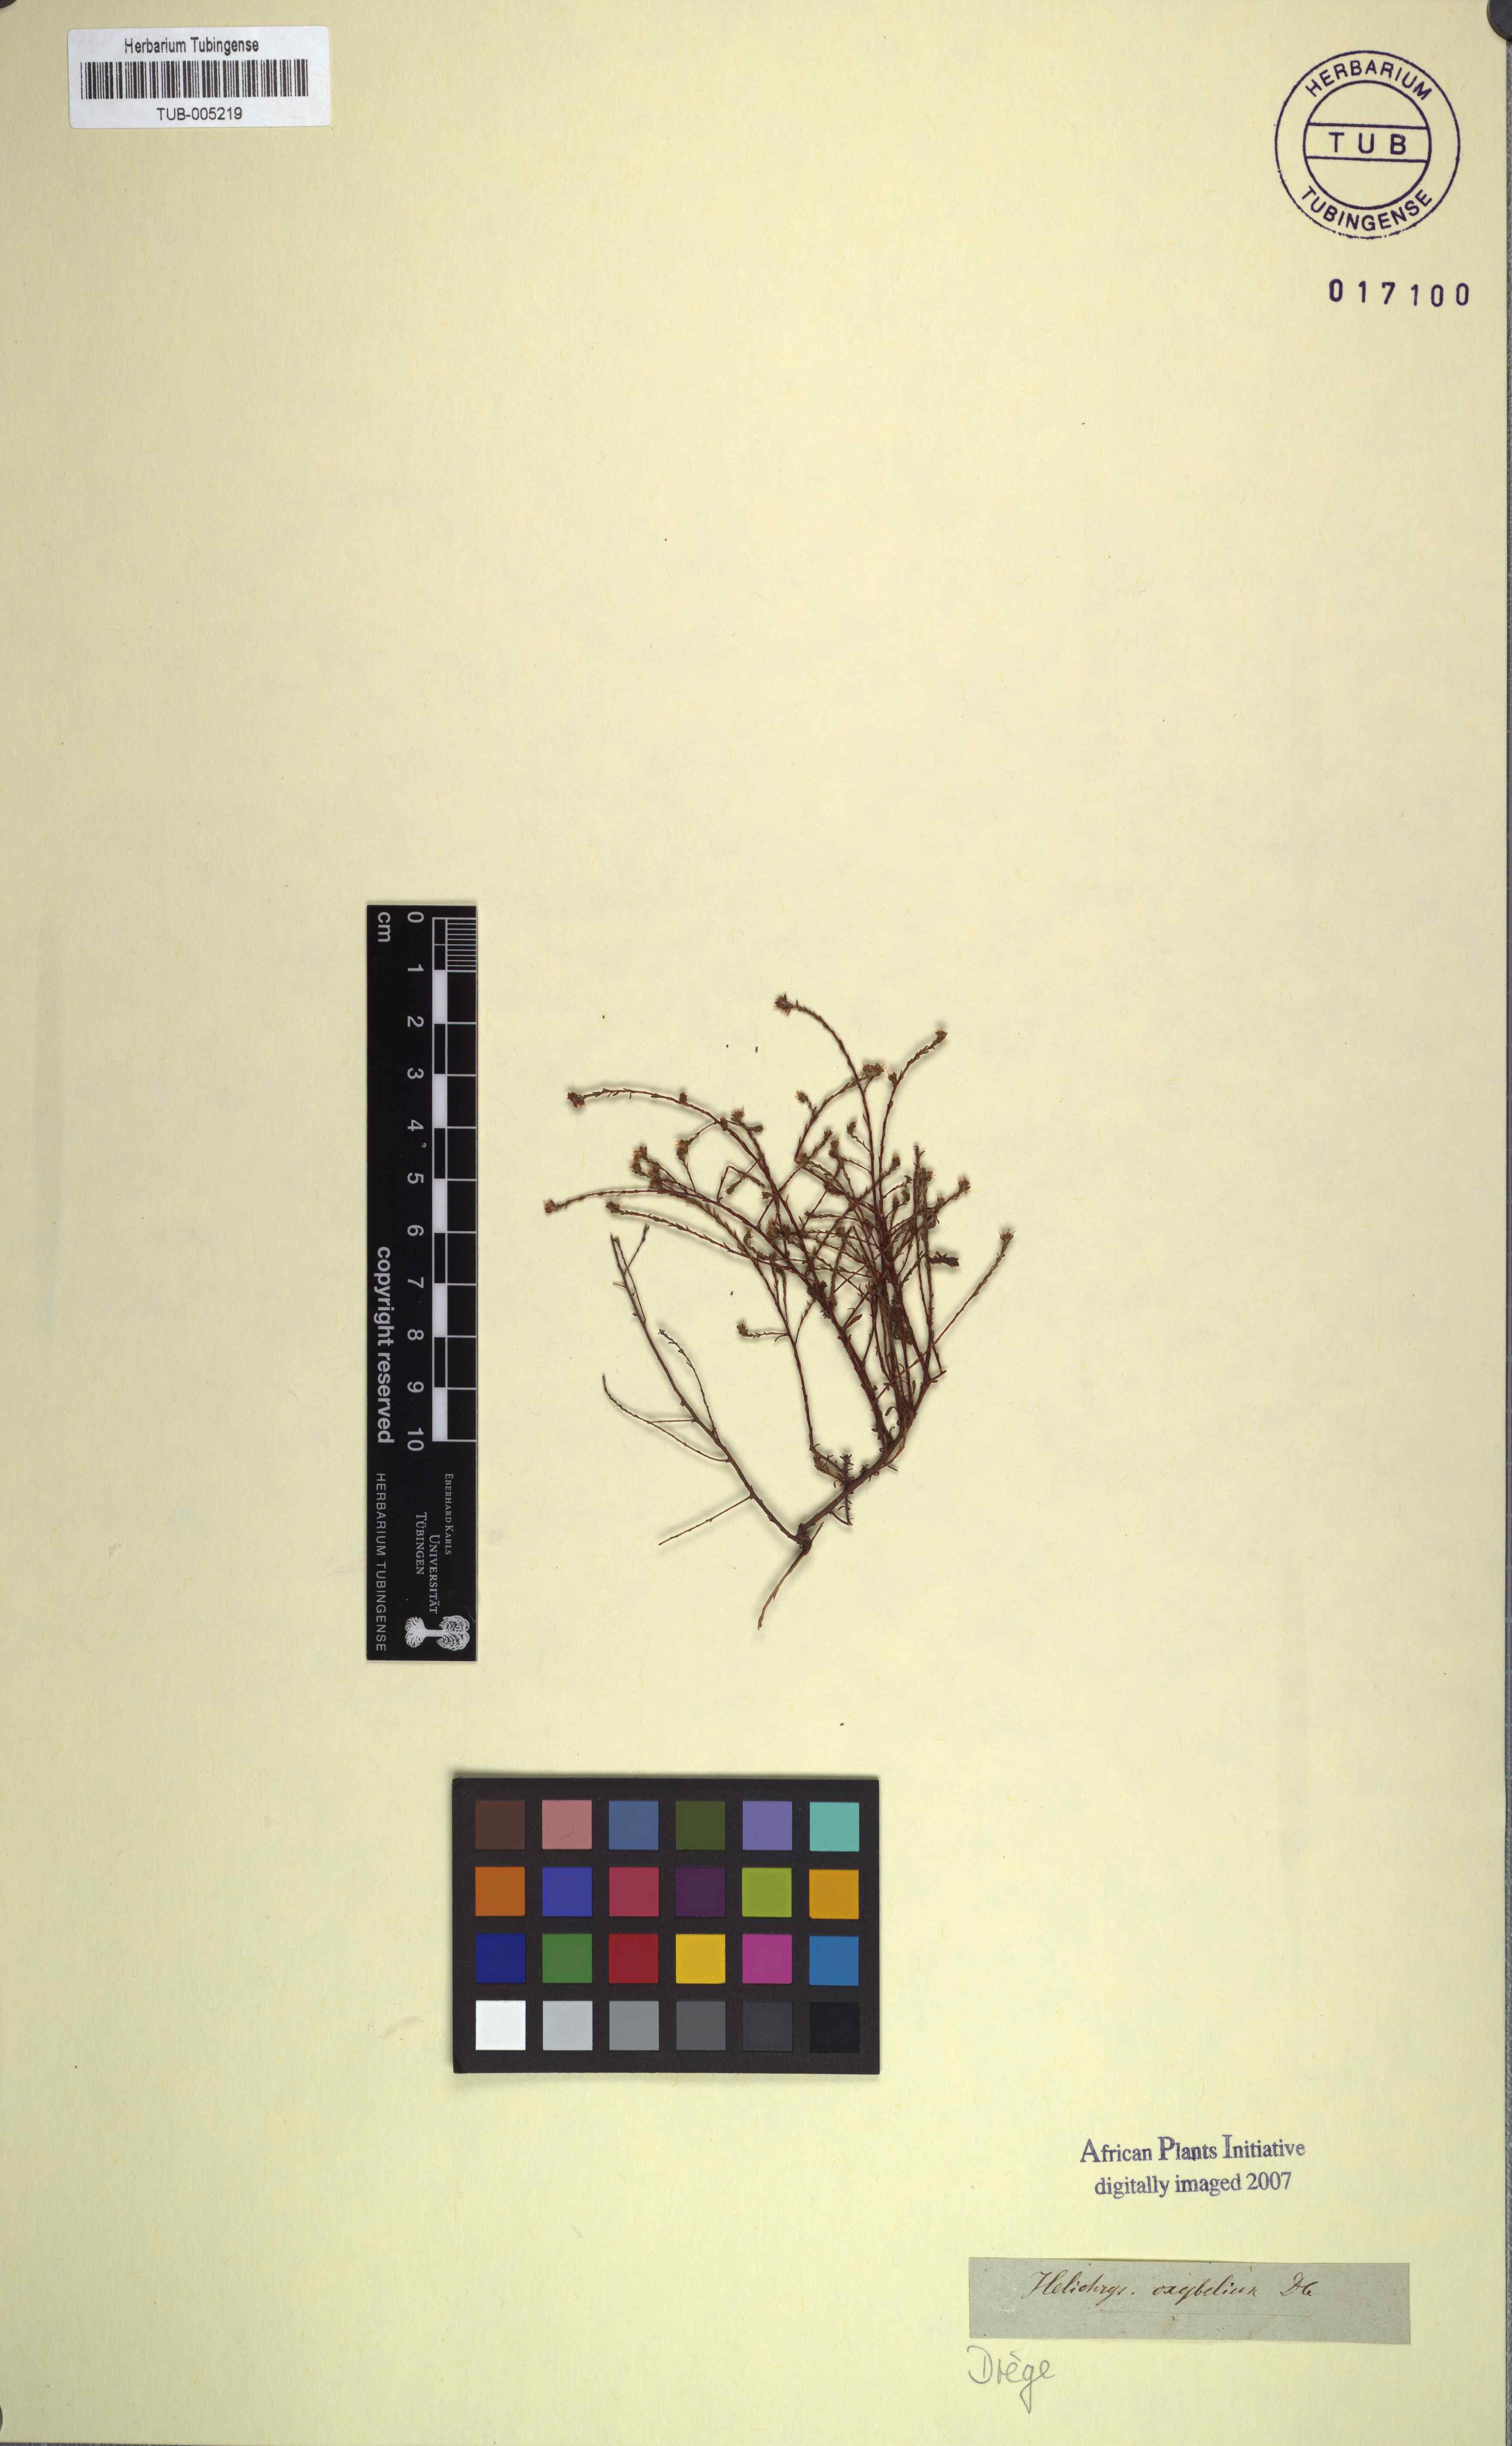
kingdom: Plantae
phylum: Tracheophyta
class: Magnoliopsida
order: Asterales
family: Asteraceae
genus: Helichrysum
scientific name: Helichrysum oxybelium
